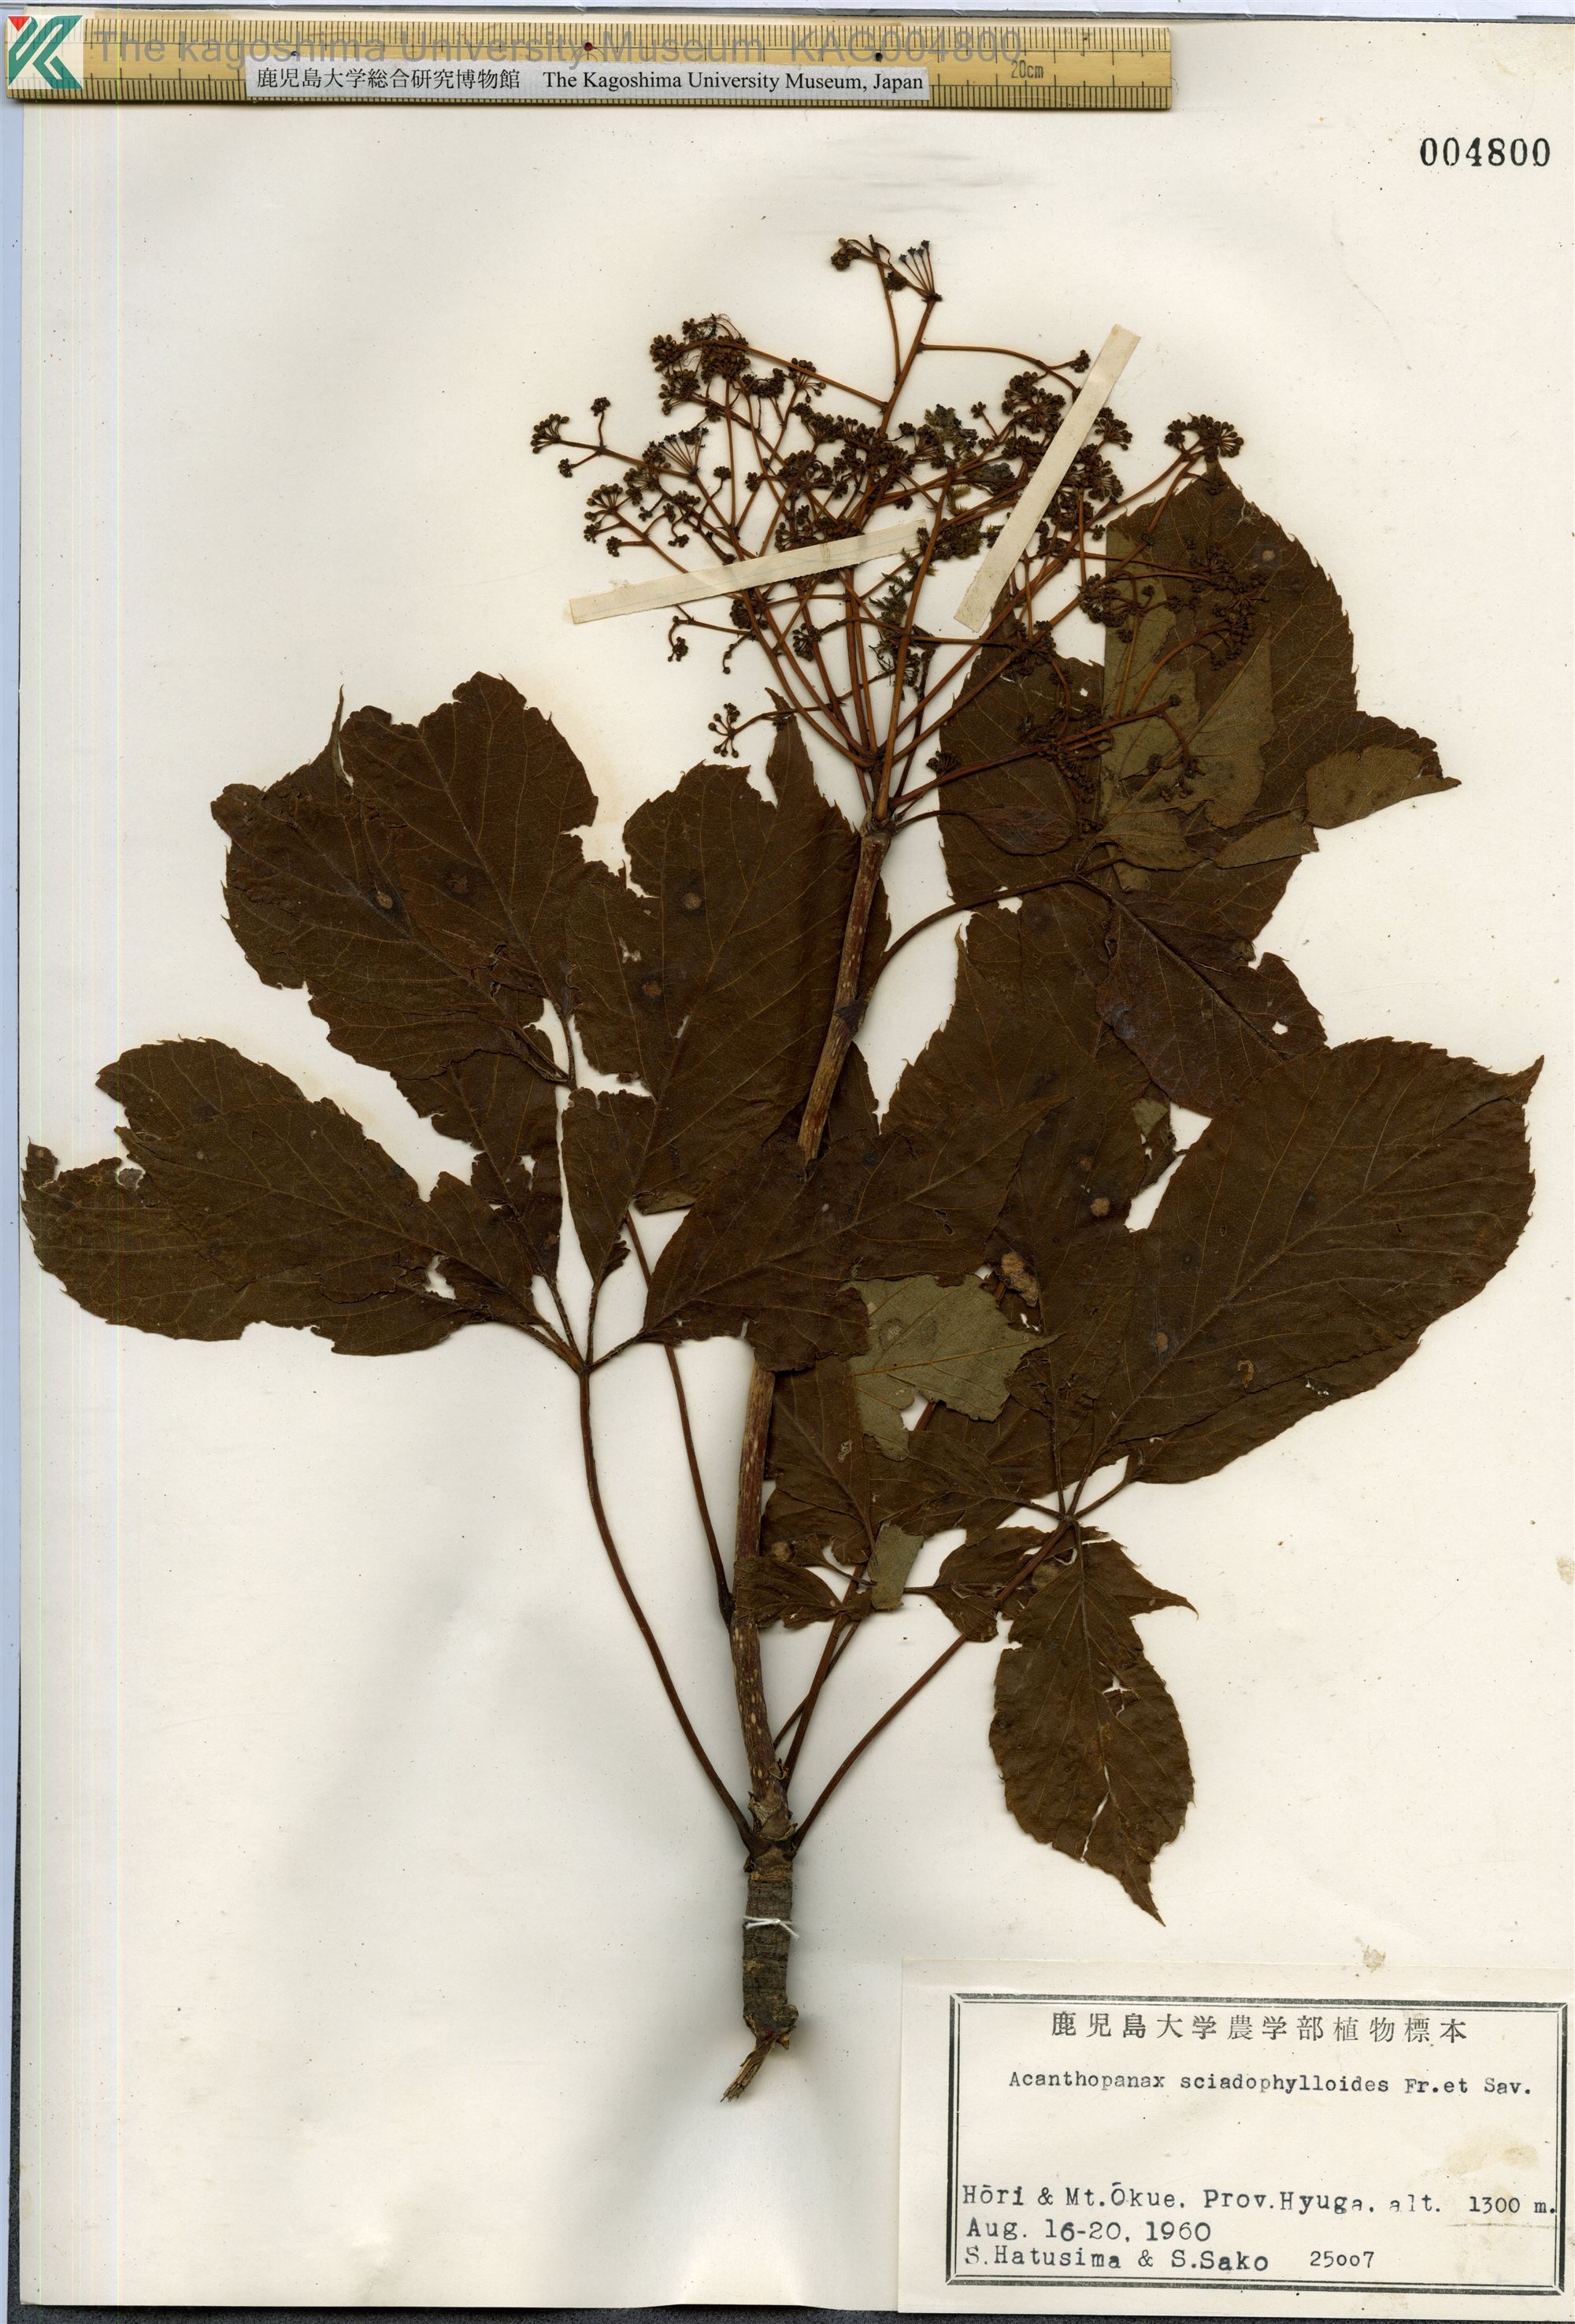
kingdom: Plantae
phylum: Tracheophyta
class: Magnoliopsida
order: Apiales
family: Araliaceae
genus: Chengiopanax
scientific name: Chengiopanax sciadophylloides
